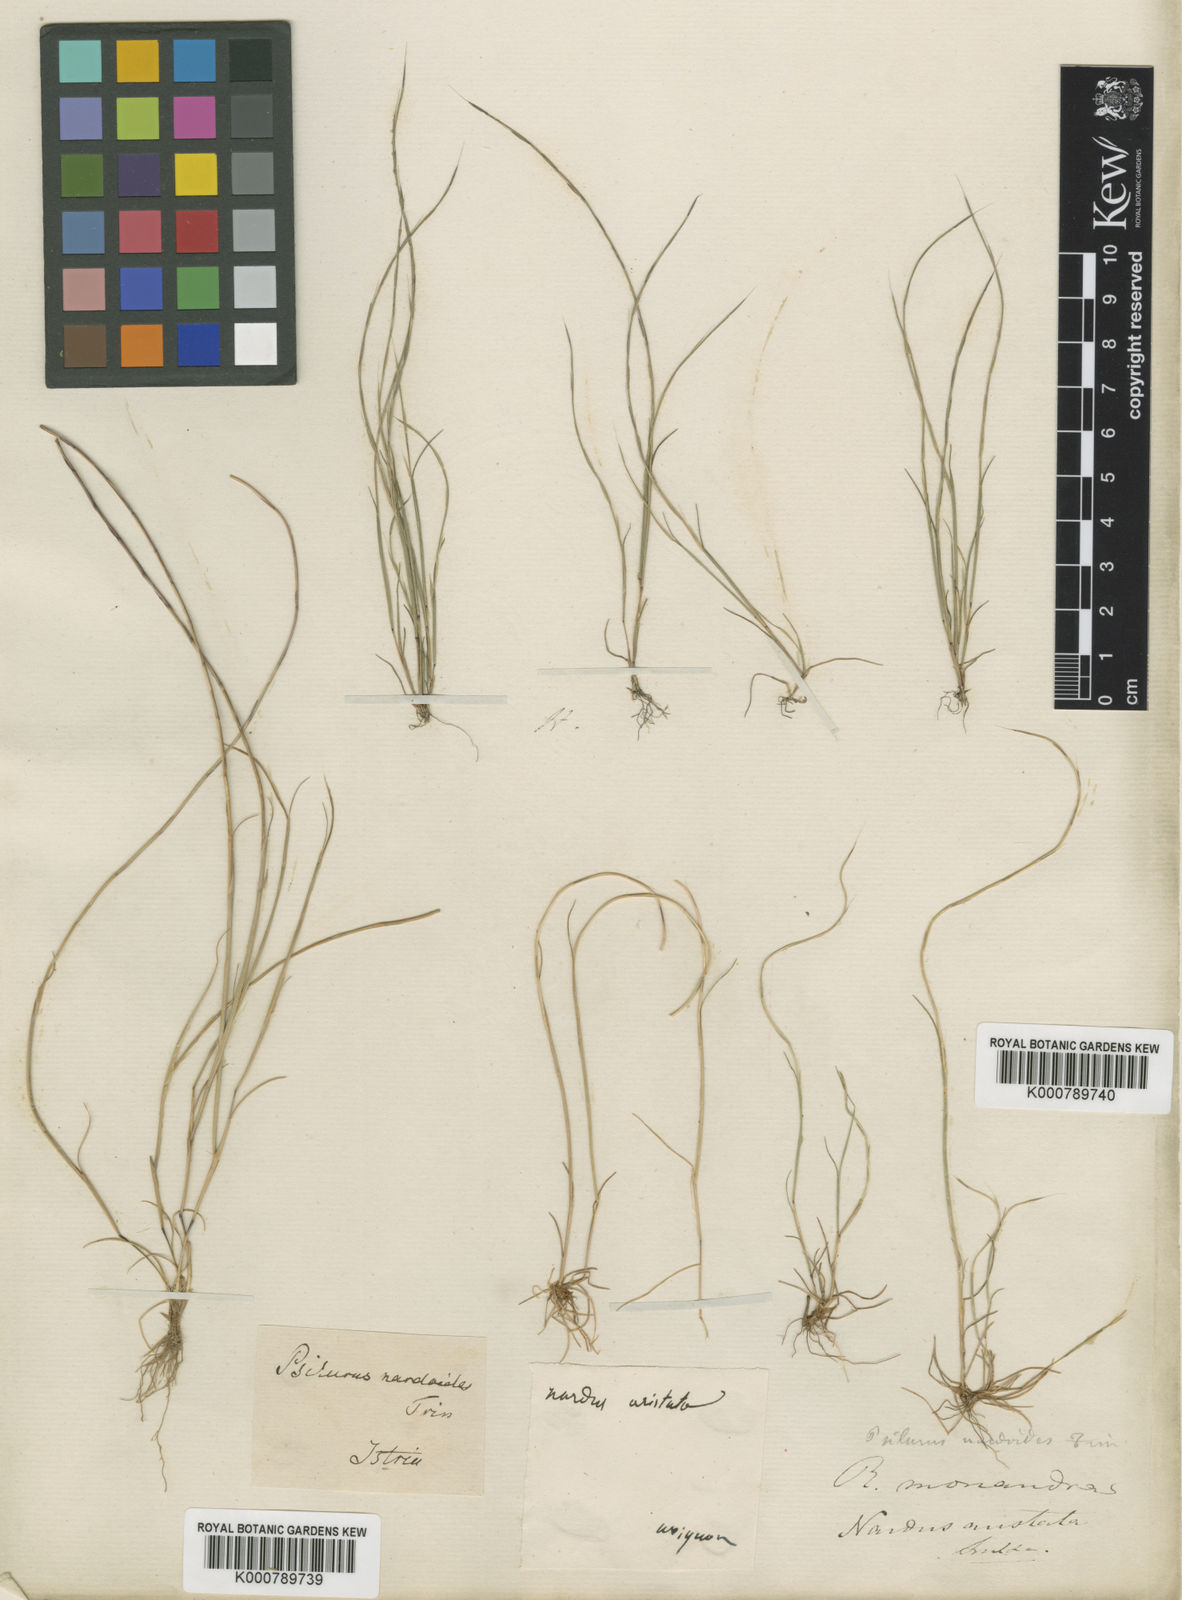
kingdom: Plantae
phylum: Tracheophyta
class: Liliopsida
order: Poales
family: Poaceae
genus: Festuca
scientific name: Festuca incurva
